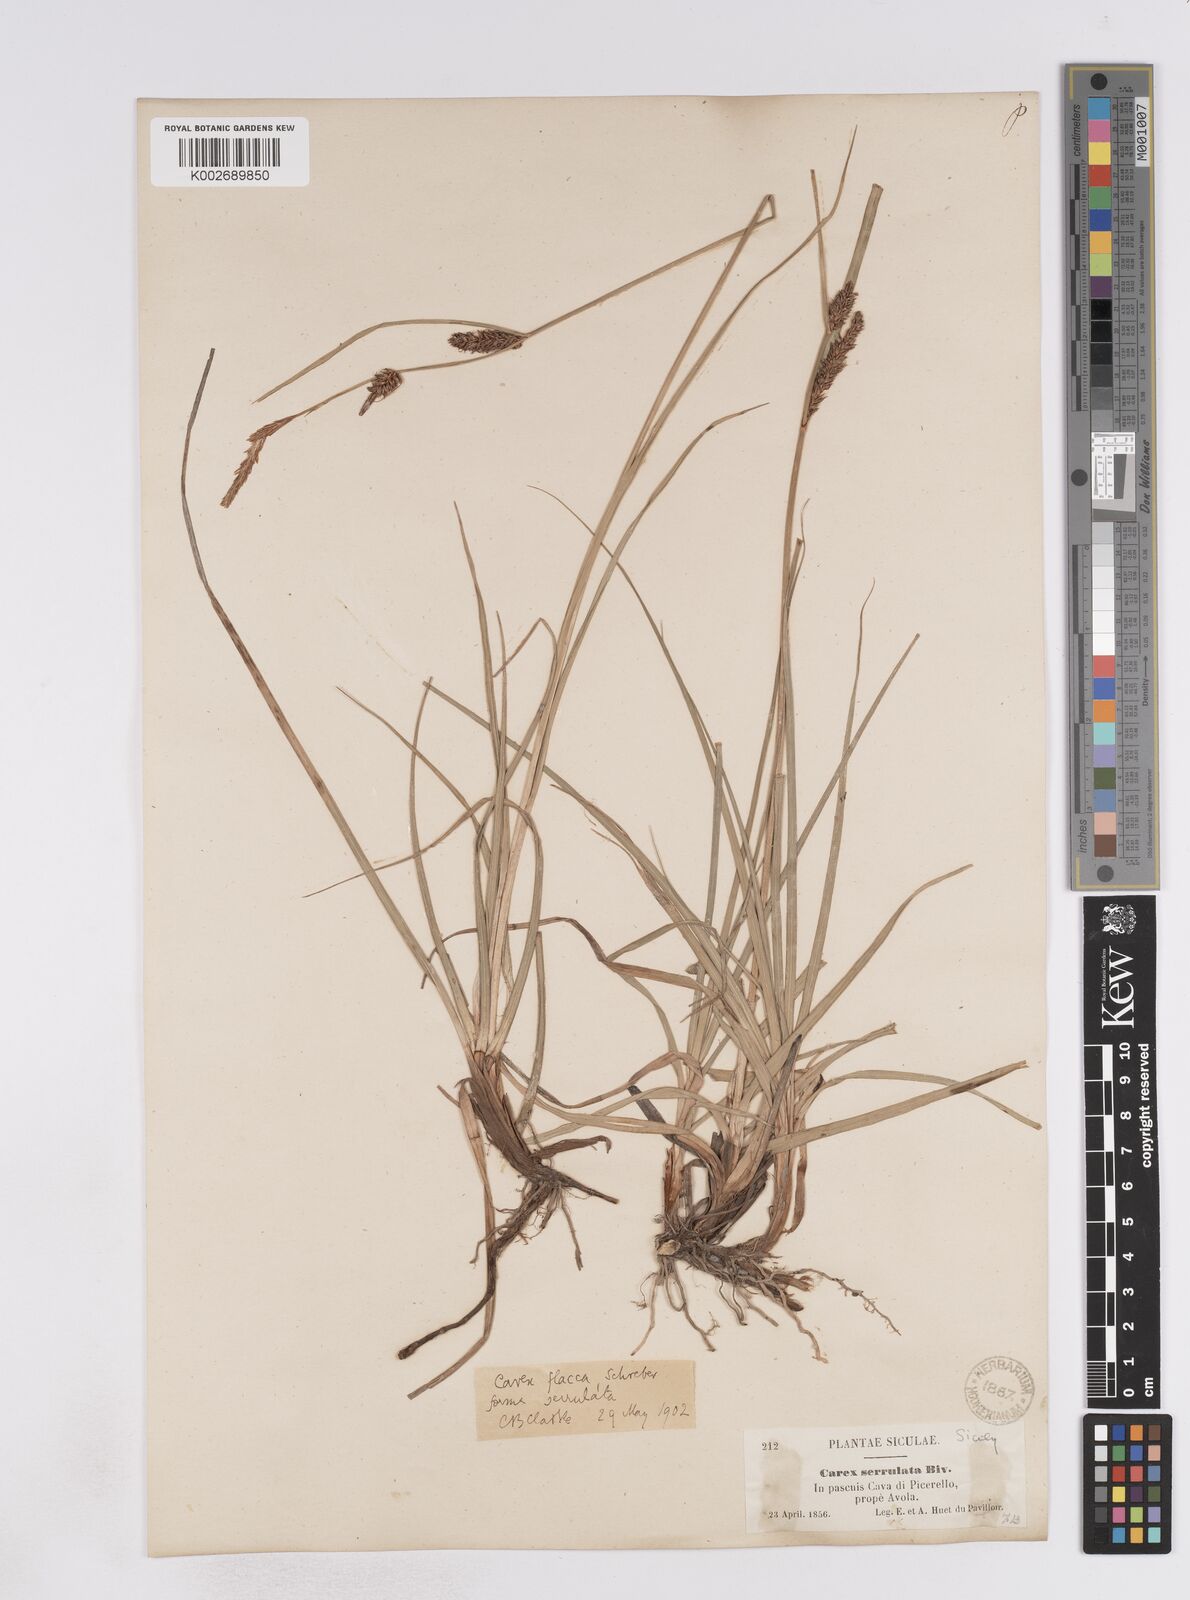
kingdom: Plantae
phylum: Tracheophyta
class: Liliopsida
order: Poales
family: Cyperaceae
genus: Carex
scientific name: Carex flacca
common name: Glaucous sedge
